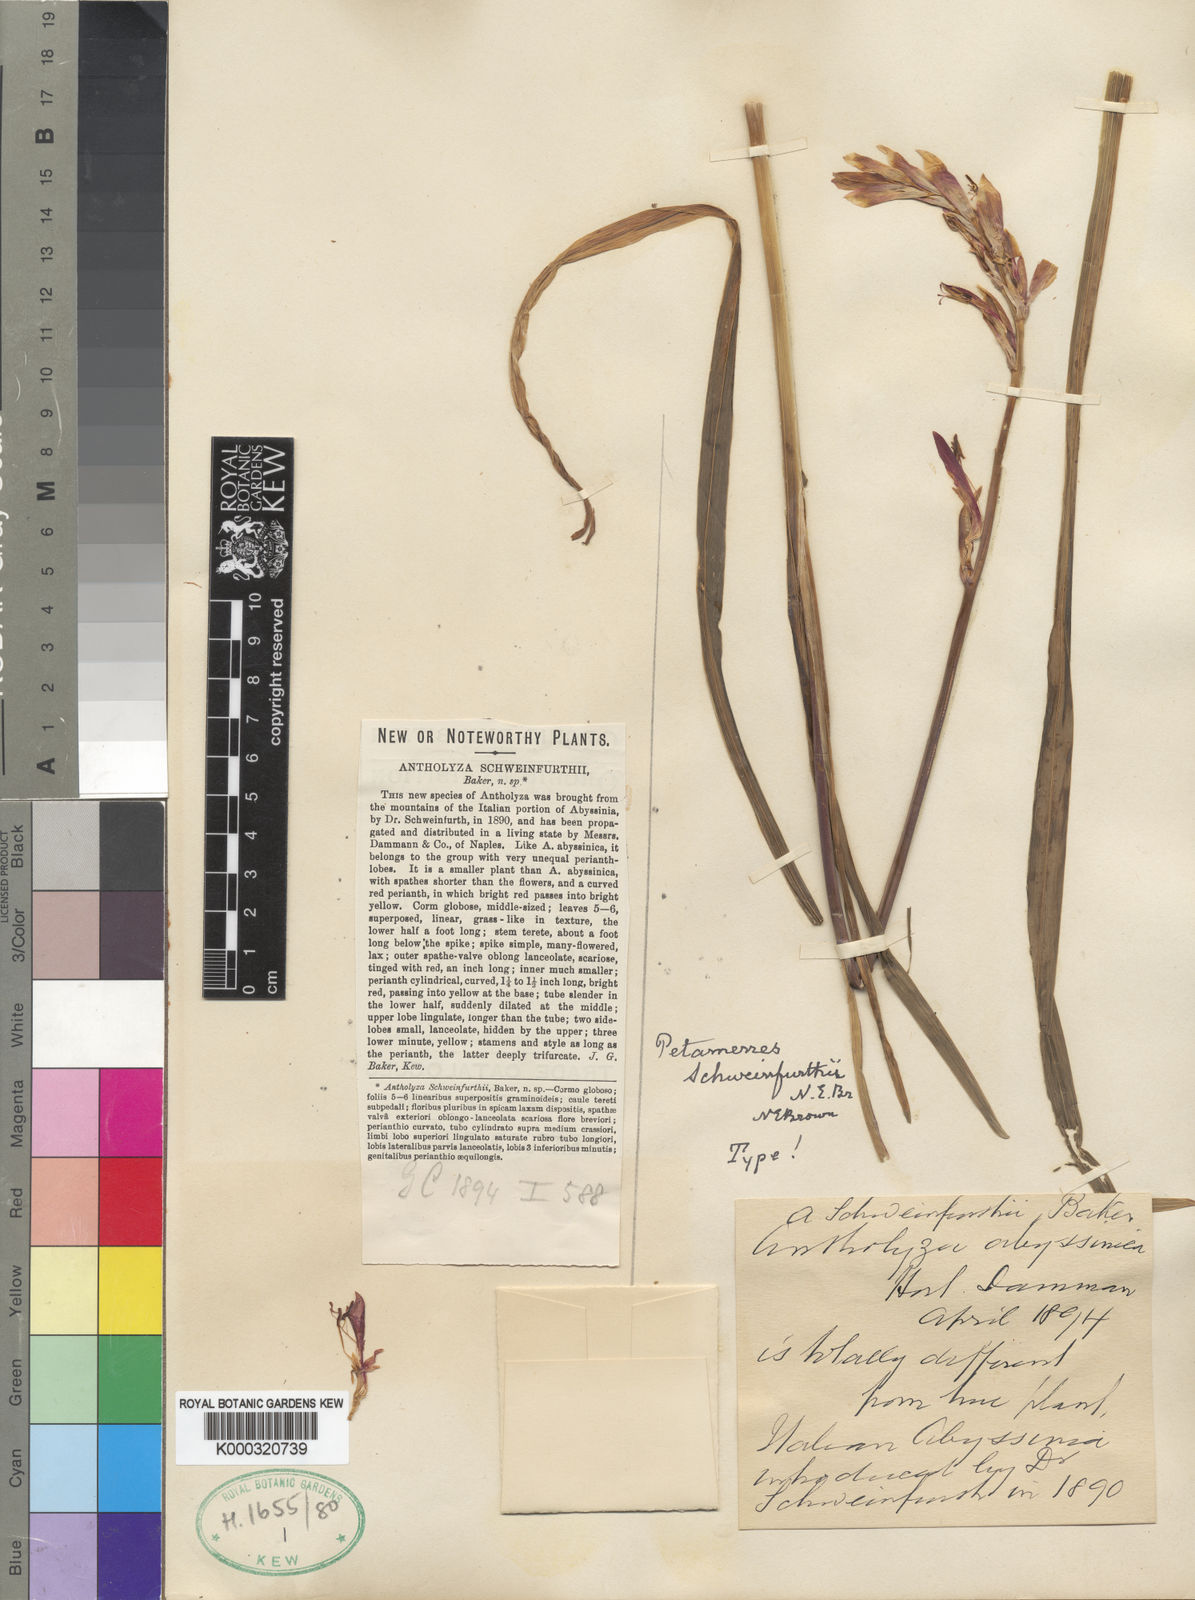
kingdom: Plantae
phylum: Tracheophyta
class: Liliopsida
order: Asparagales
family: Iridaceae
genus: Gladiolus
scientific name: Gladiolus schweinfurthii
